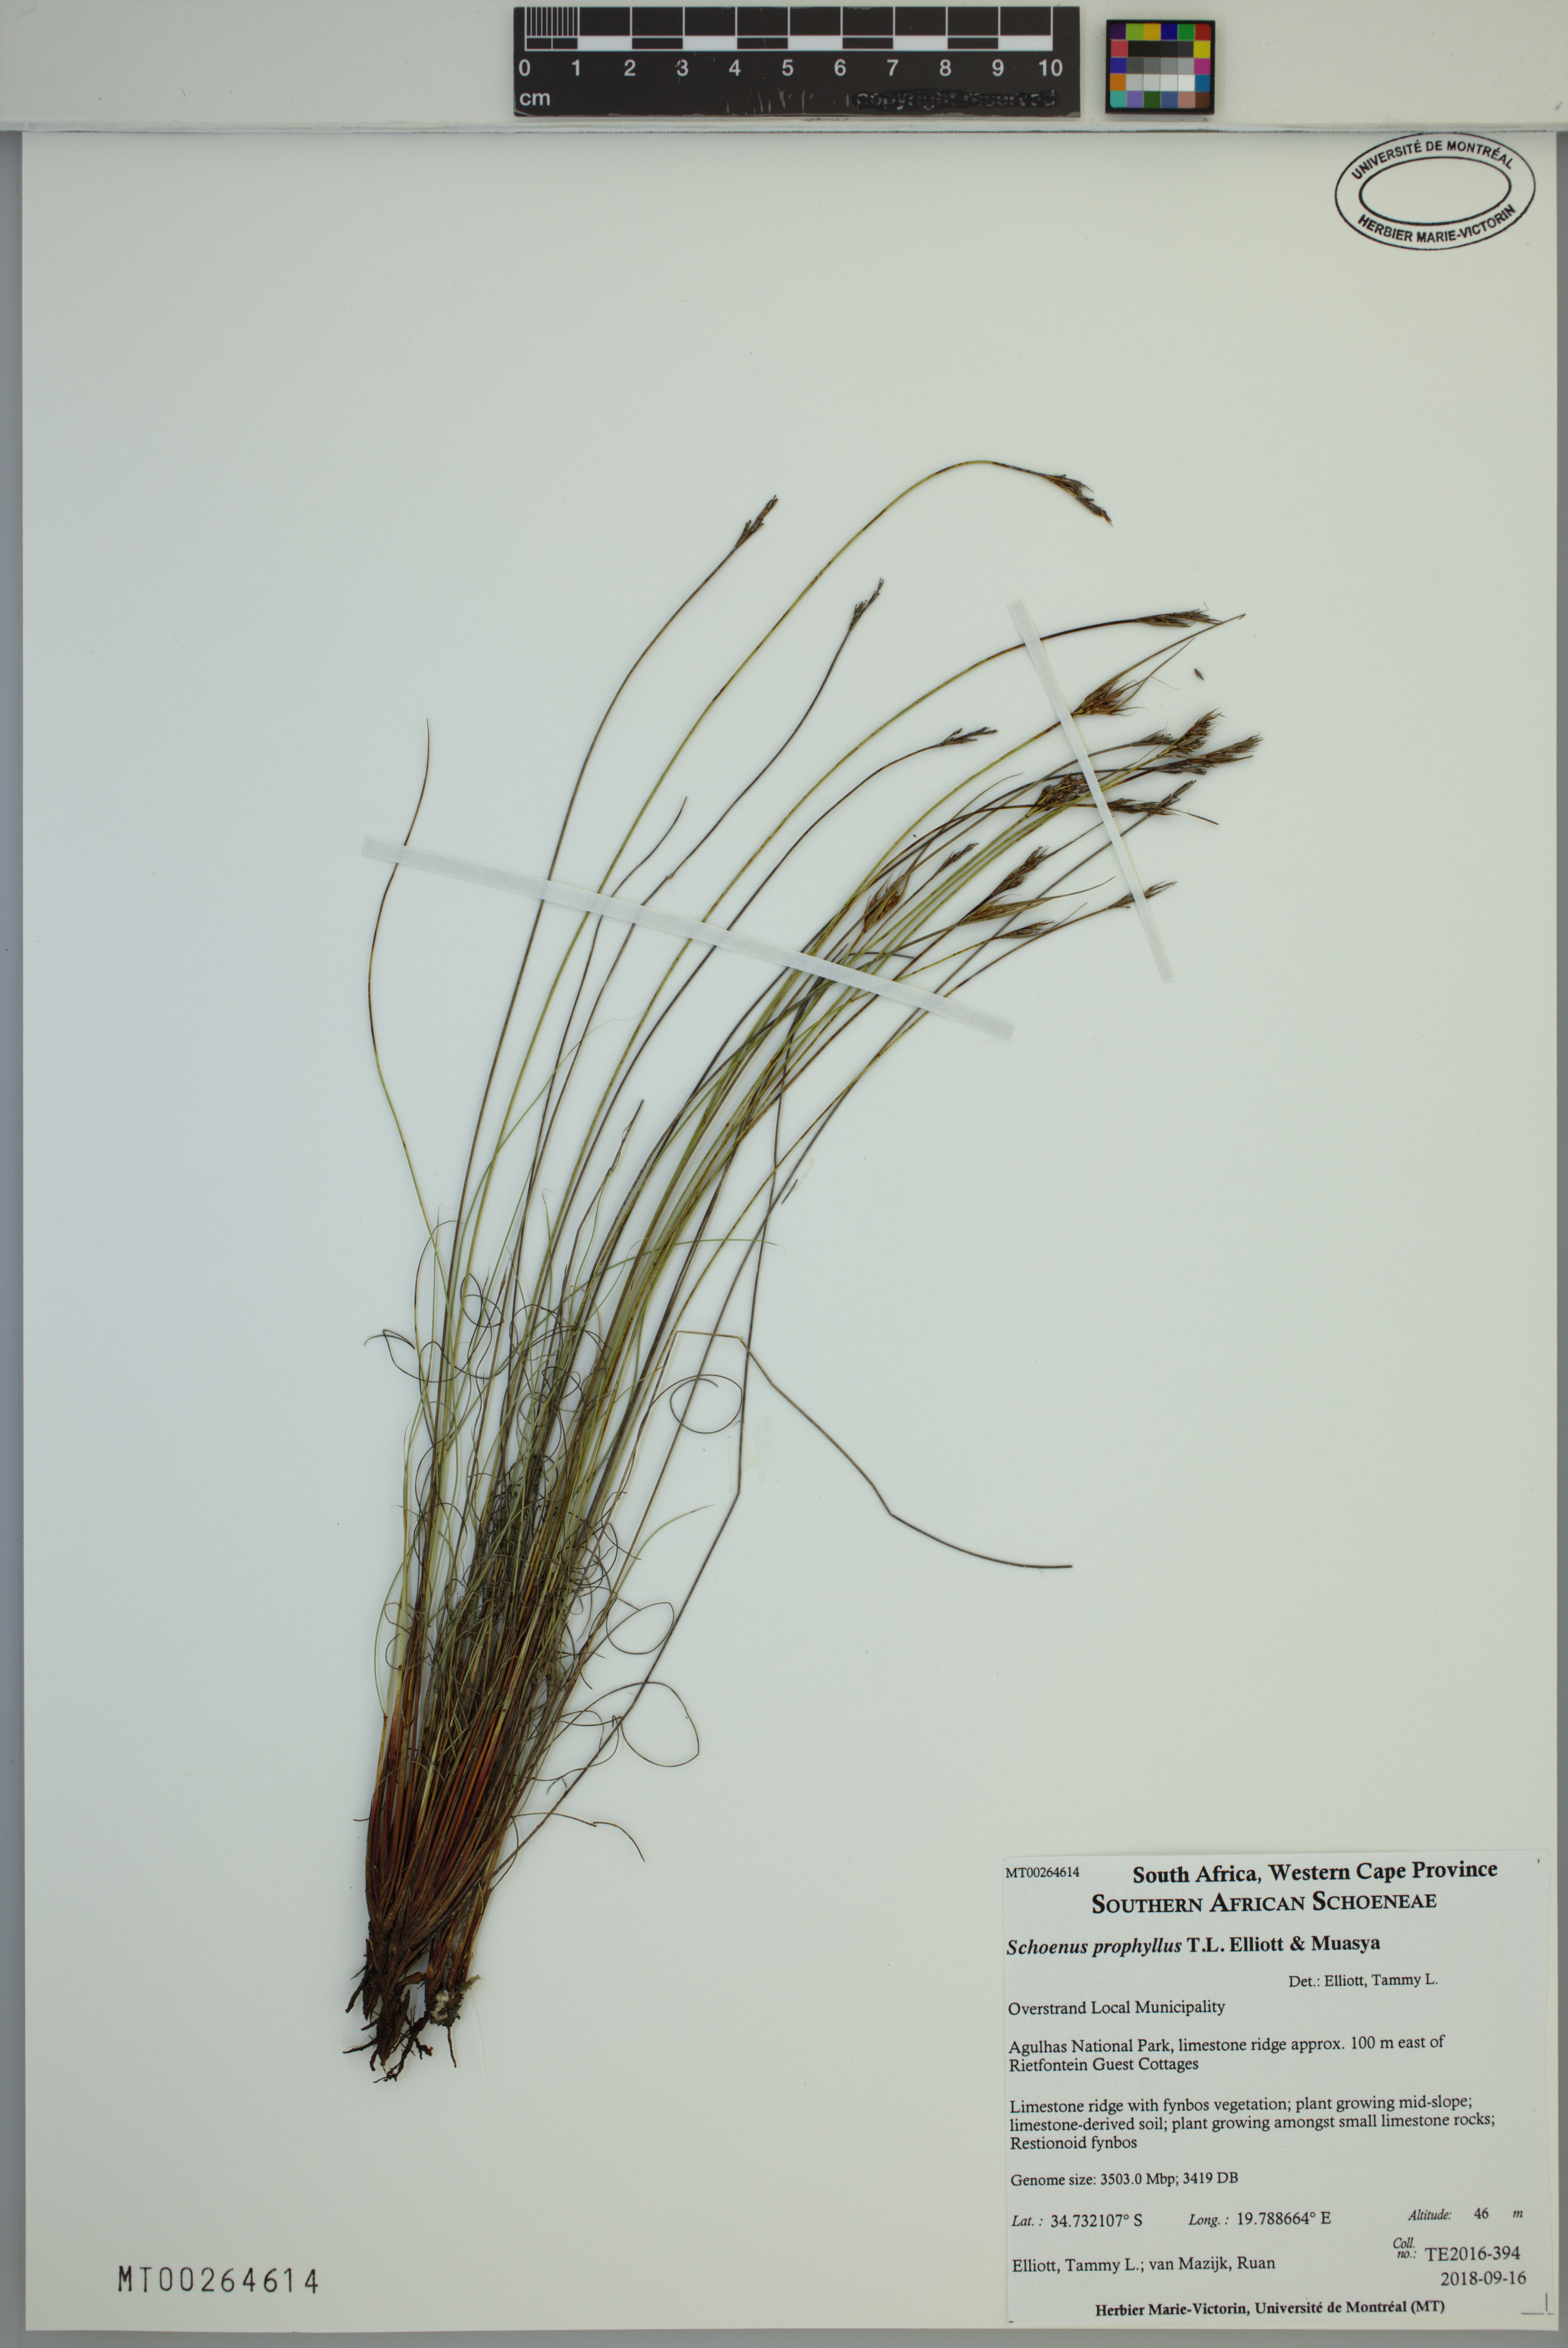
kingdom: Plantae
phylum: Tracheophyta
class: Liliopsida
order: Poales
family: Cyperaceae
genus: Schoenus
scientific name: Schoenus prophyllus
